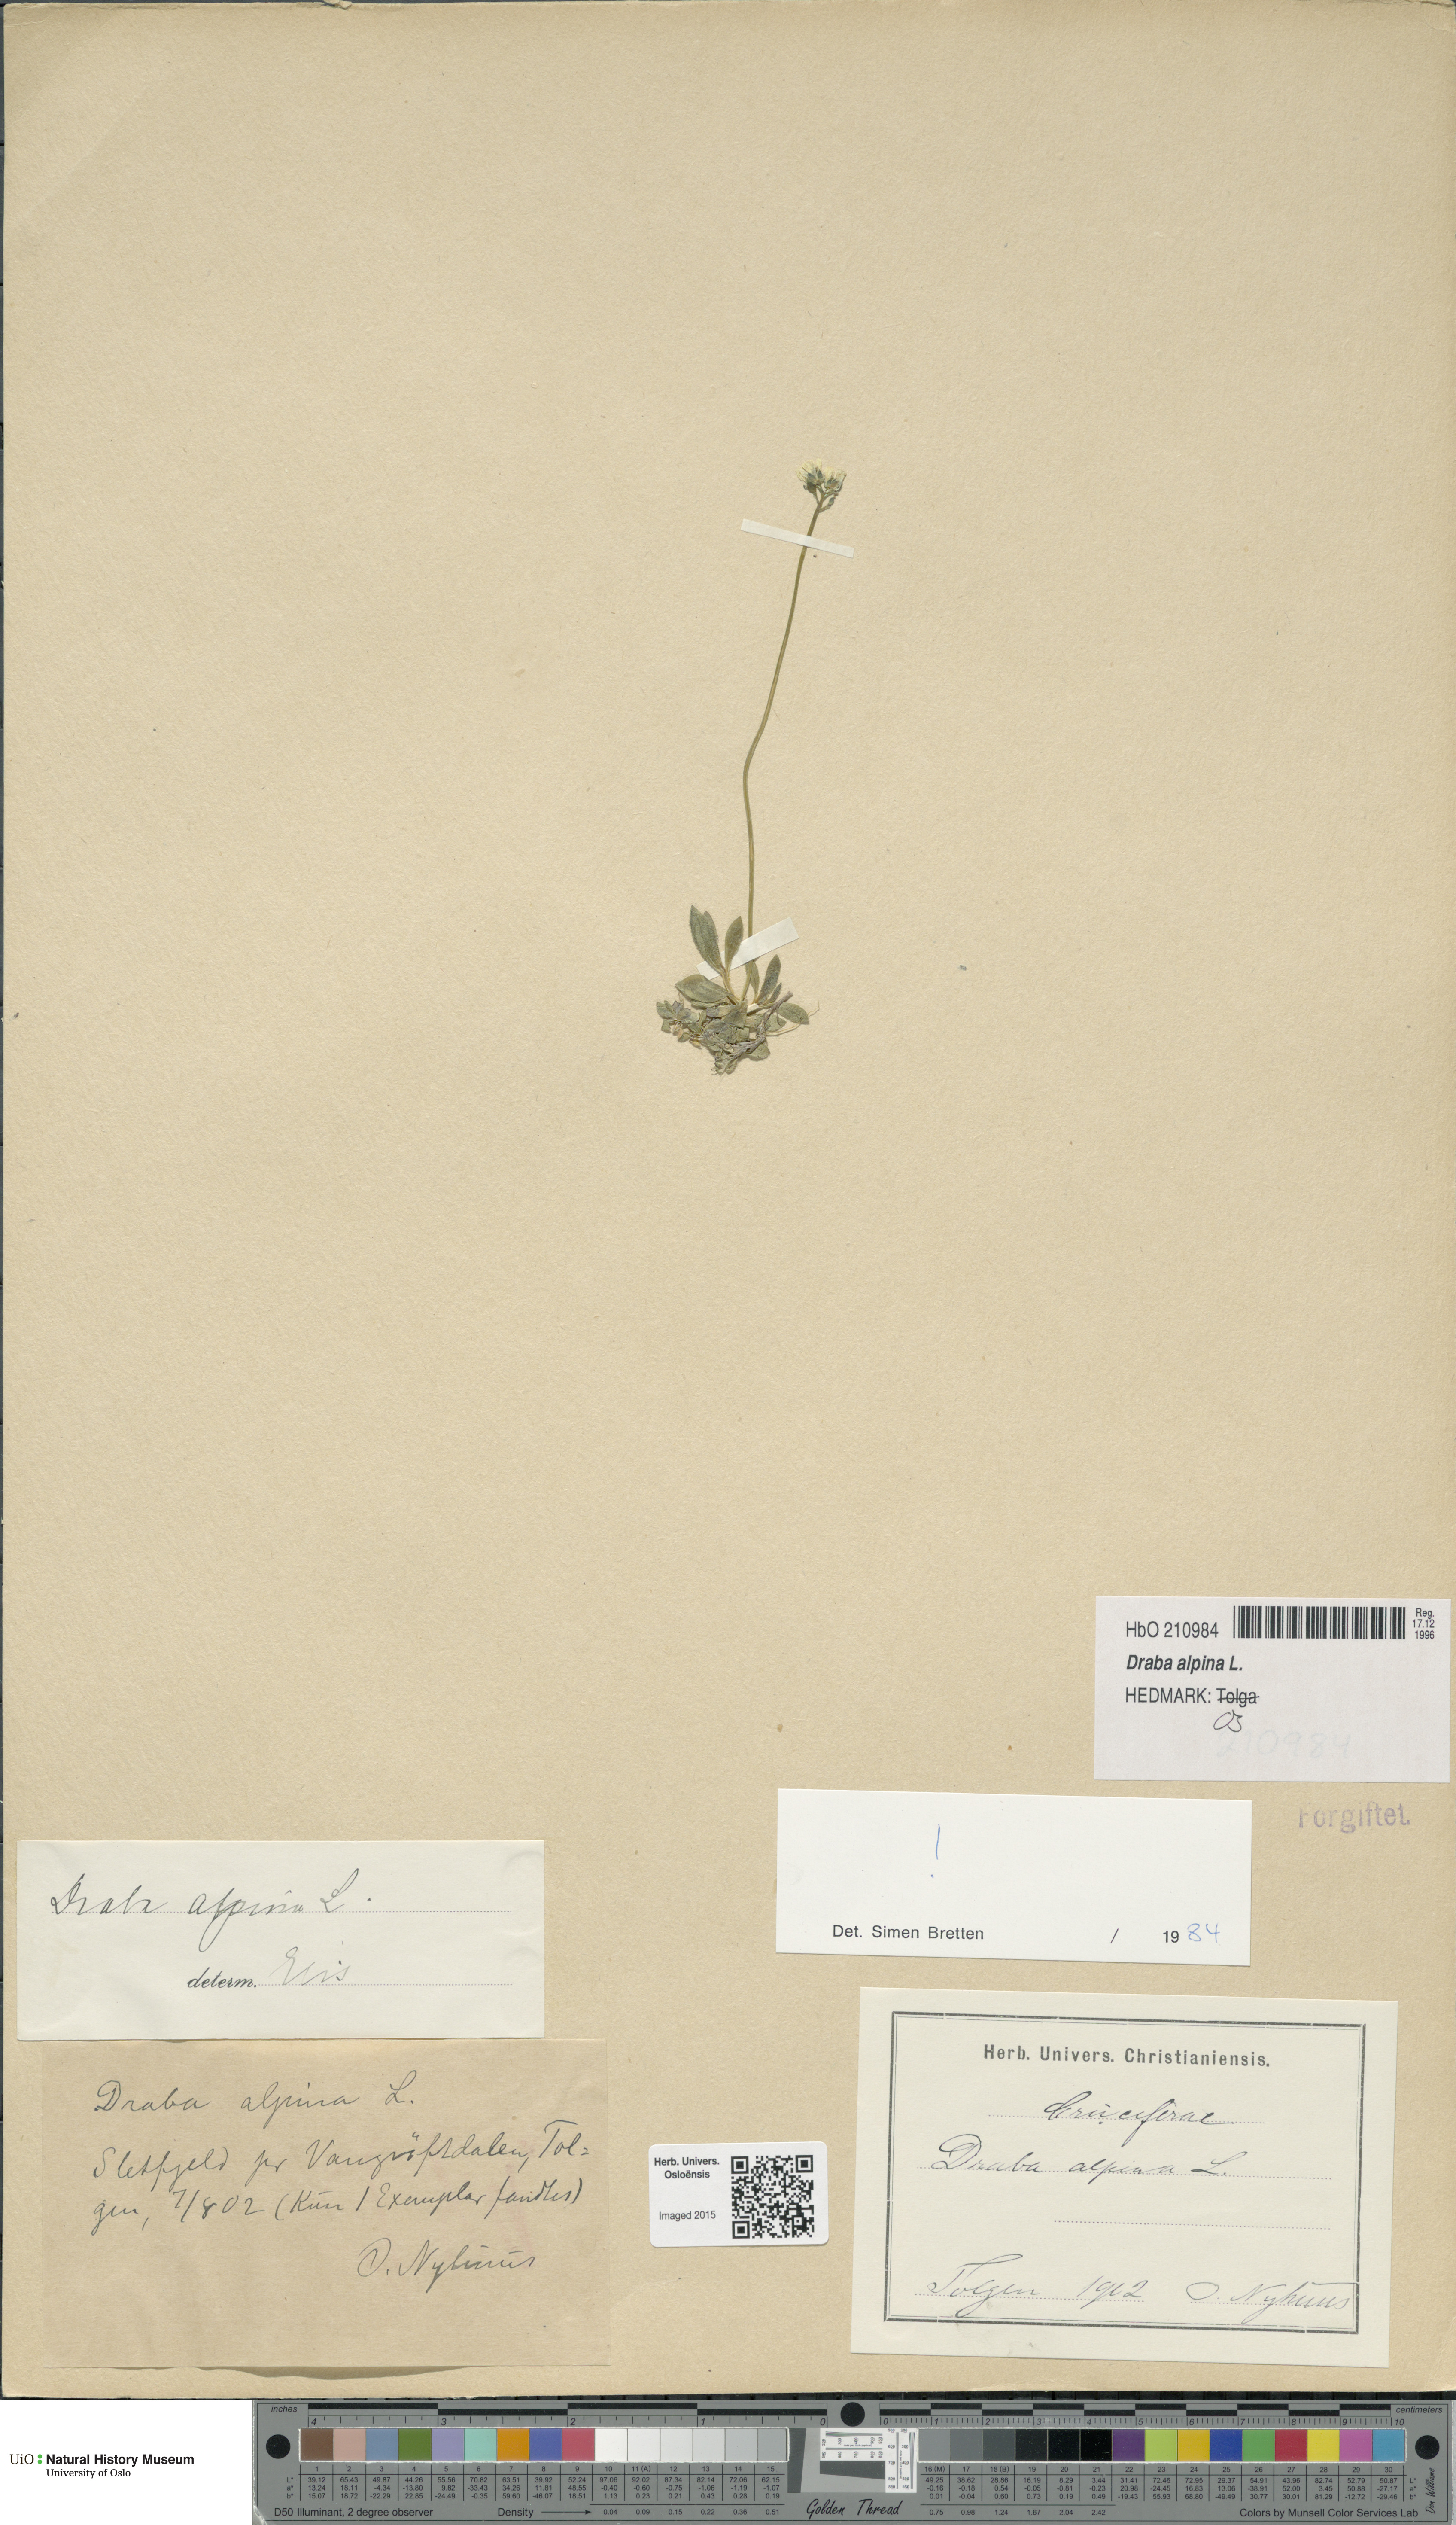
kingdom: Plantae
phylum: Tracheophyta
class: Magnoliopsida
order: Brassicales
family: Brassicaceae
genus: Draba
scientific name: Draba alpina
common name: Alpine draba
